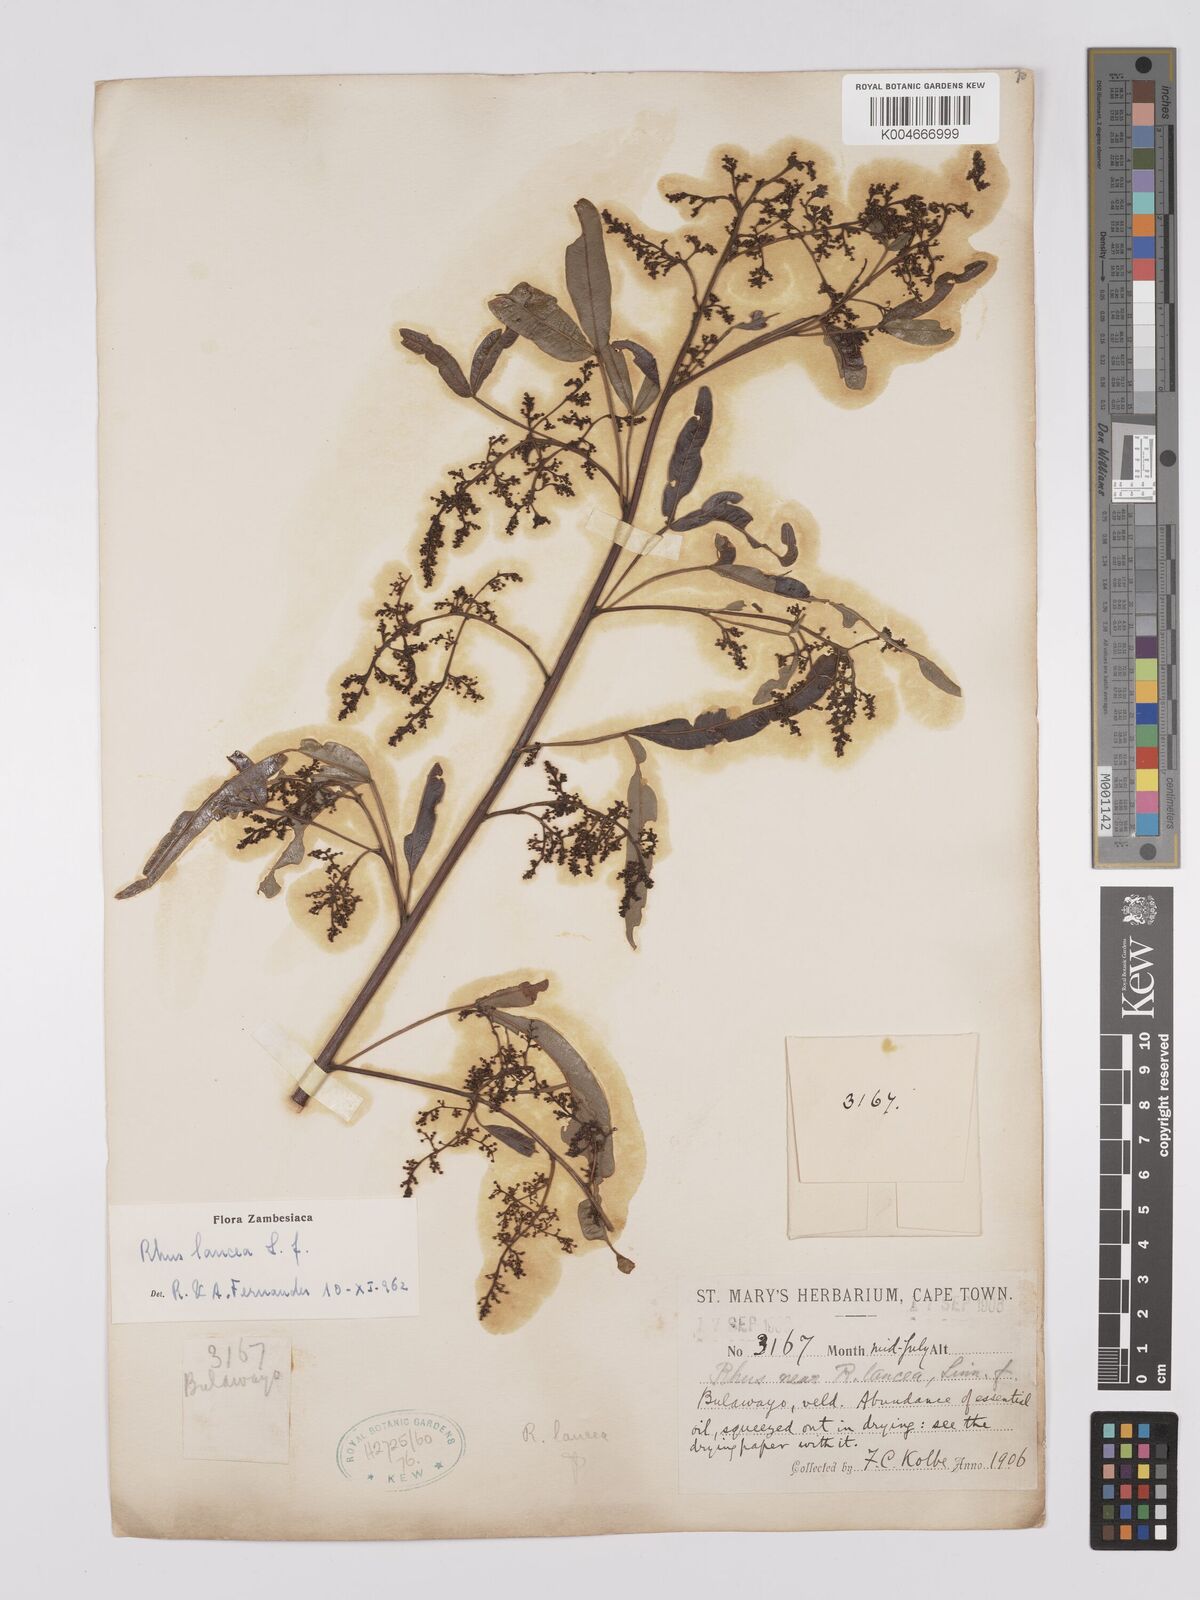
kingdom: Plantae
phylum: Tracheophyta
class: Magnoliopsida
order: Sapindales
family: Anacardiaceae
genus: Searsia
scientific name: Searsia lancea
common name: Cashew
